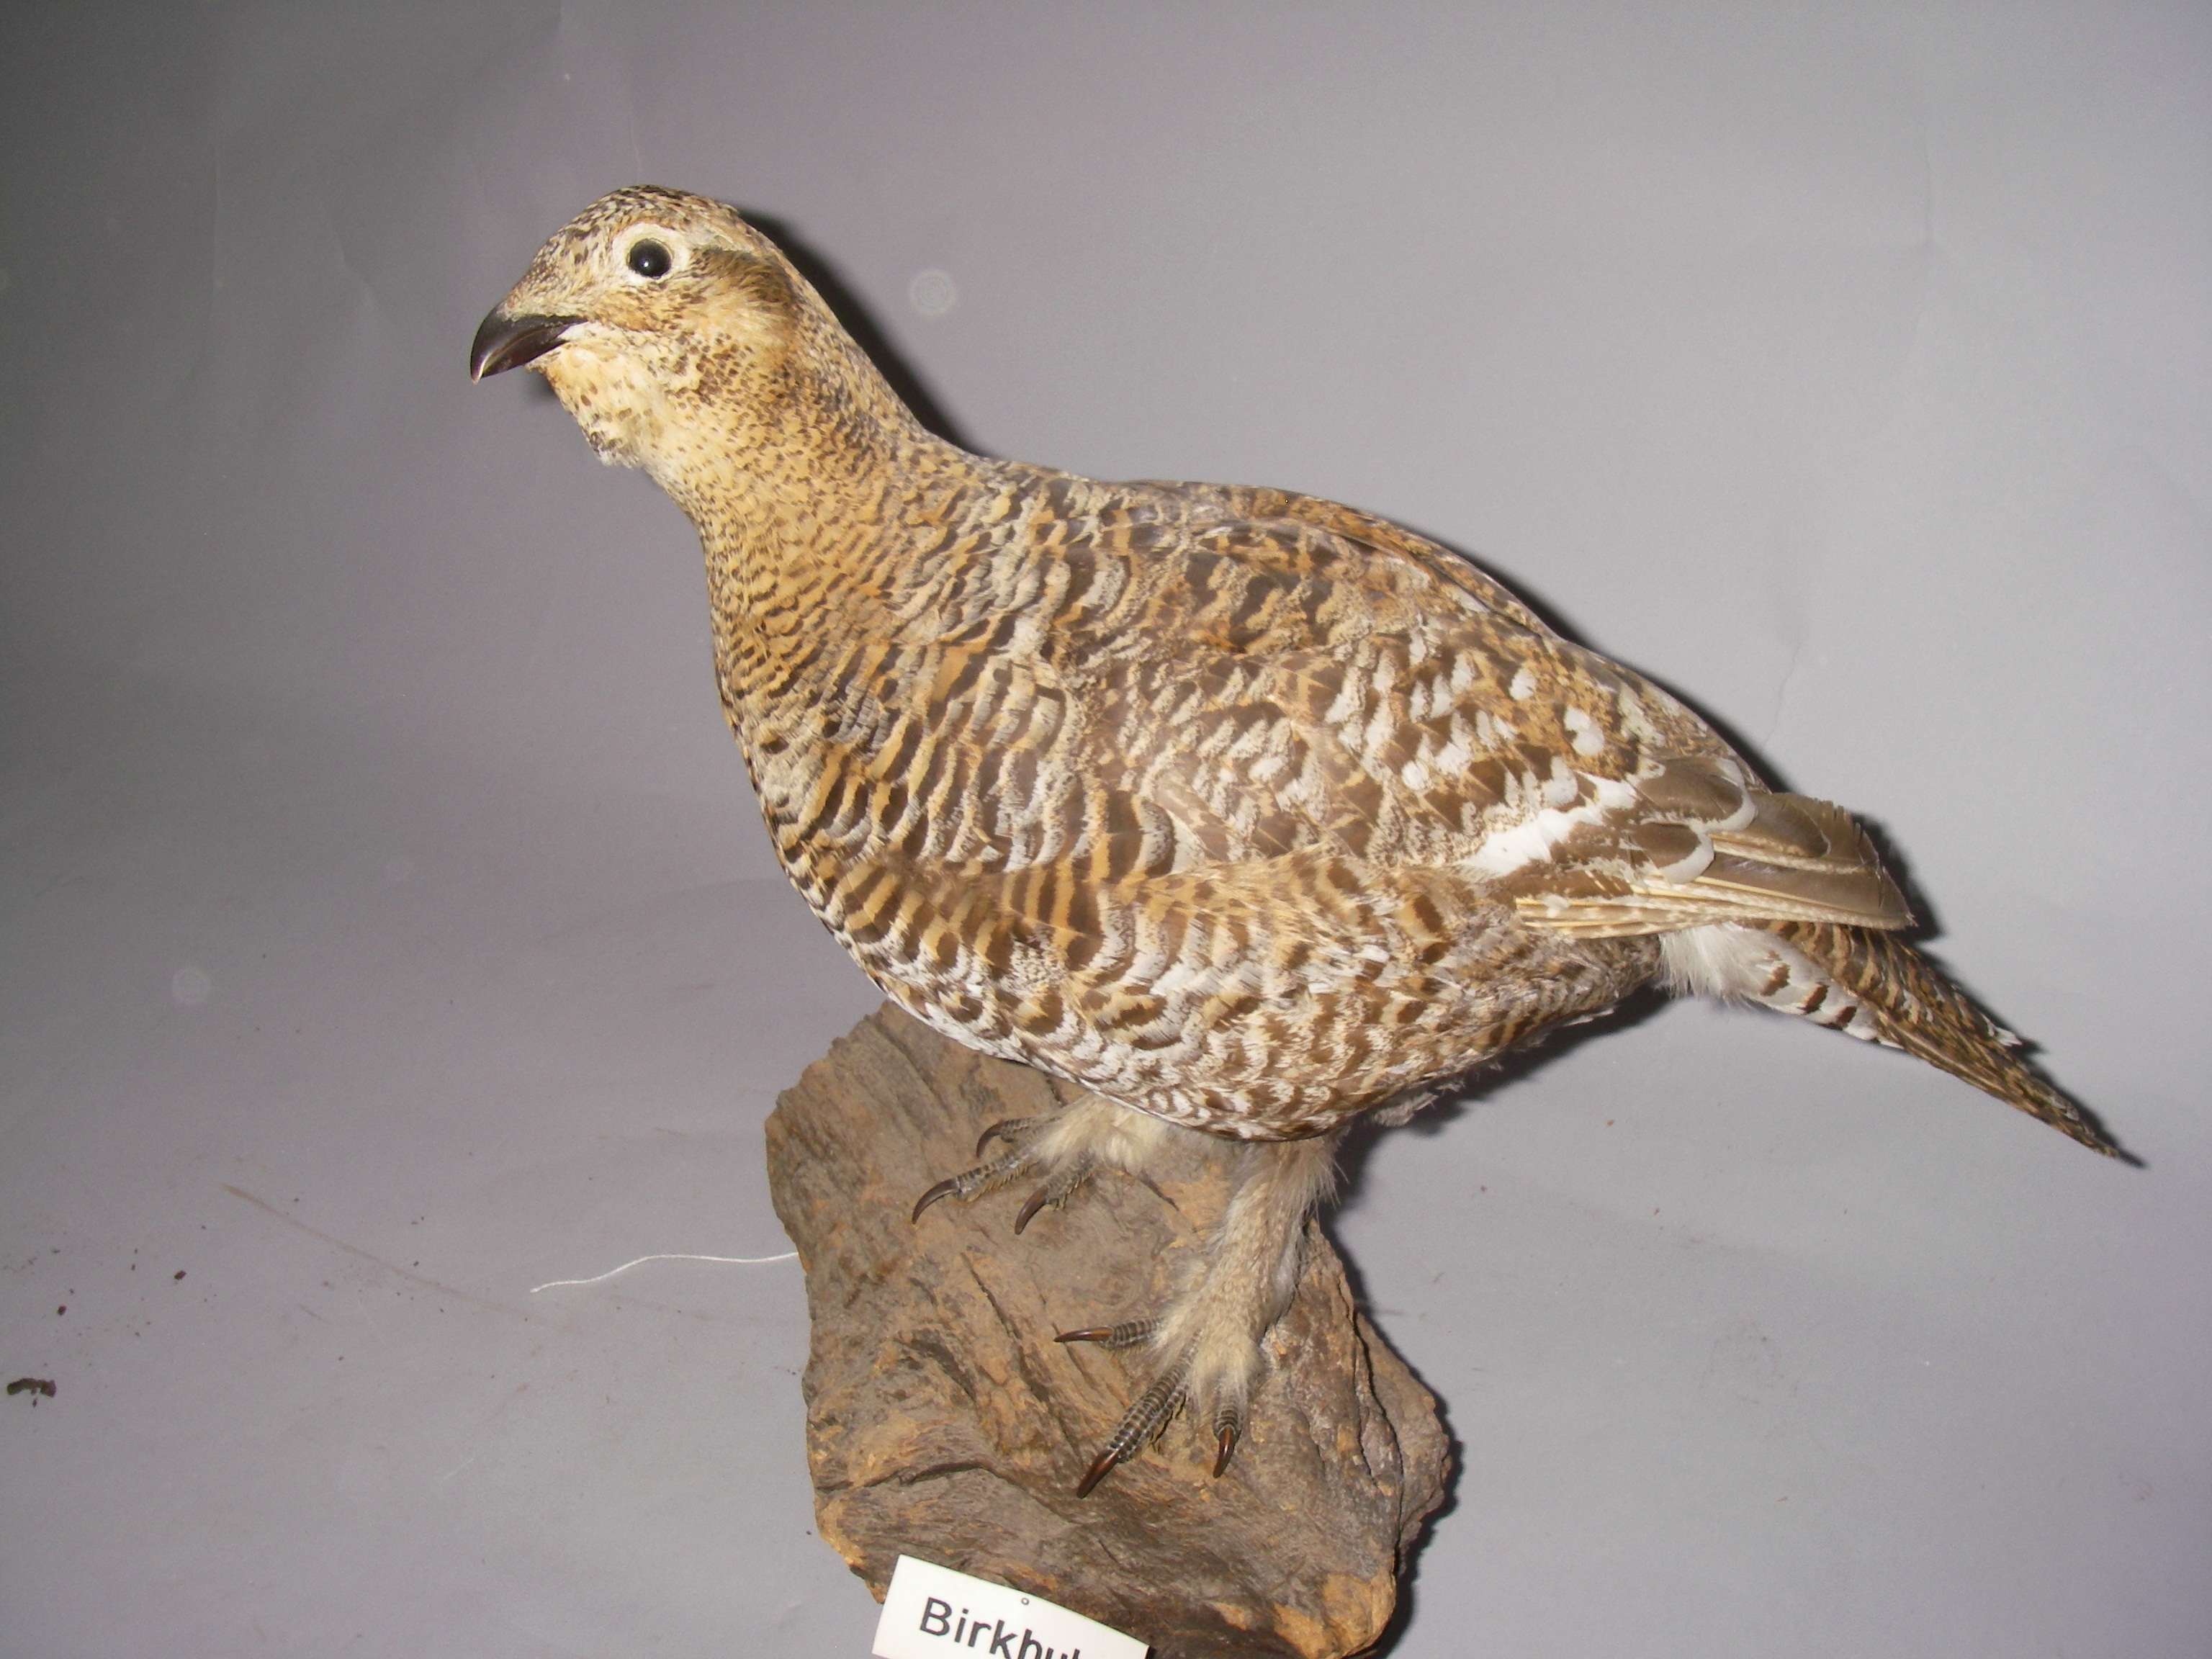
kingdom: Animalia
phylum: Chordata
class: Aves
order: Galliformes
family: Phasianidae
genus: Lyrurus
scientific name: Lyrurus tetrix
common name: Black grouse
